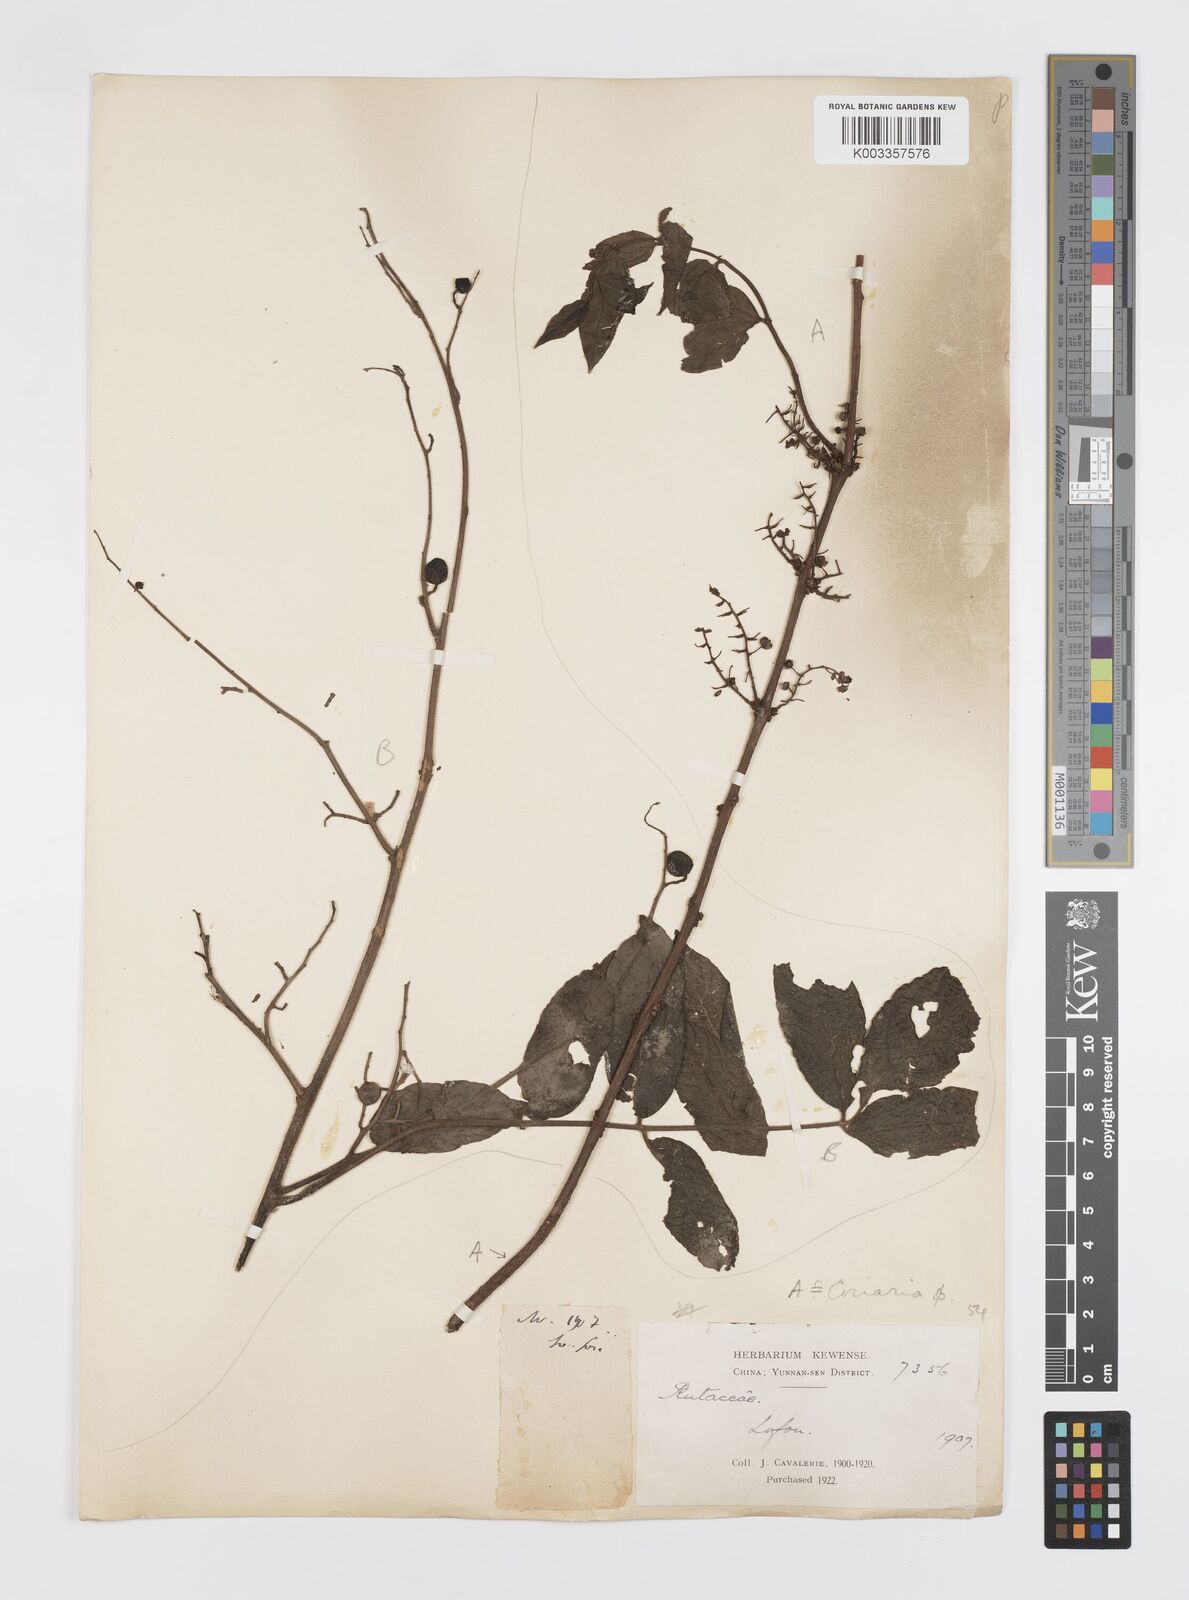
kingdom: Plantae
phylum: Tracheophyta
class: Magnoliopsida
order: Cucurbitales
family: Coriariaceae
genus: Coriaria
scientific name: Coriaria
